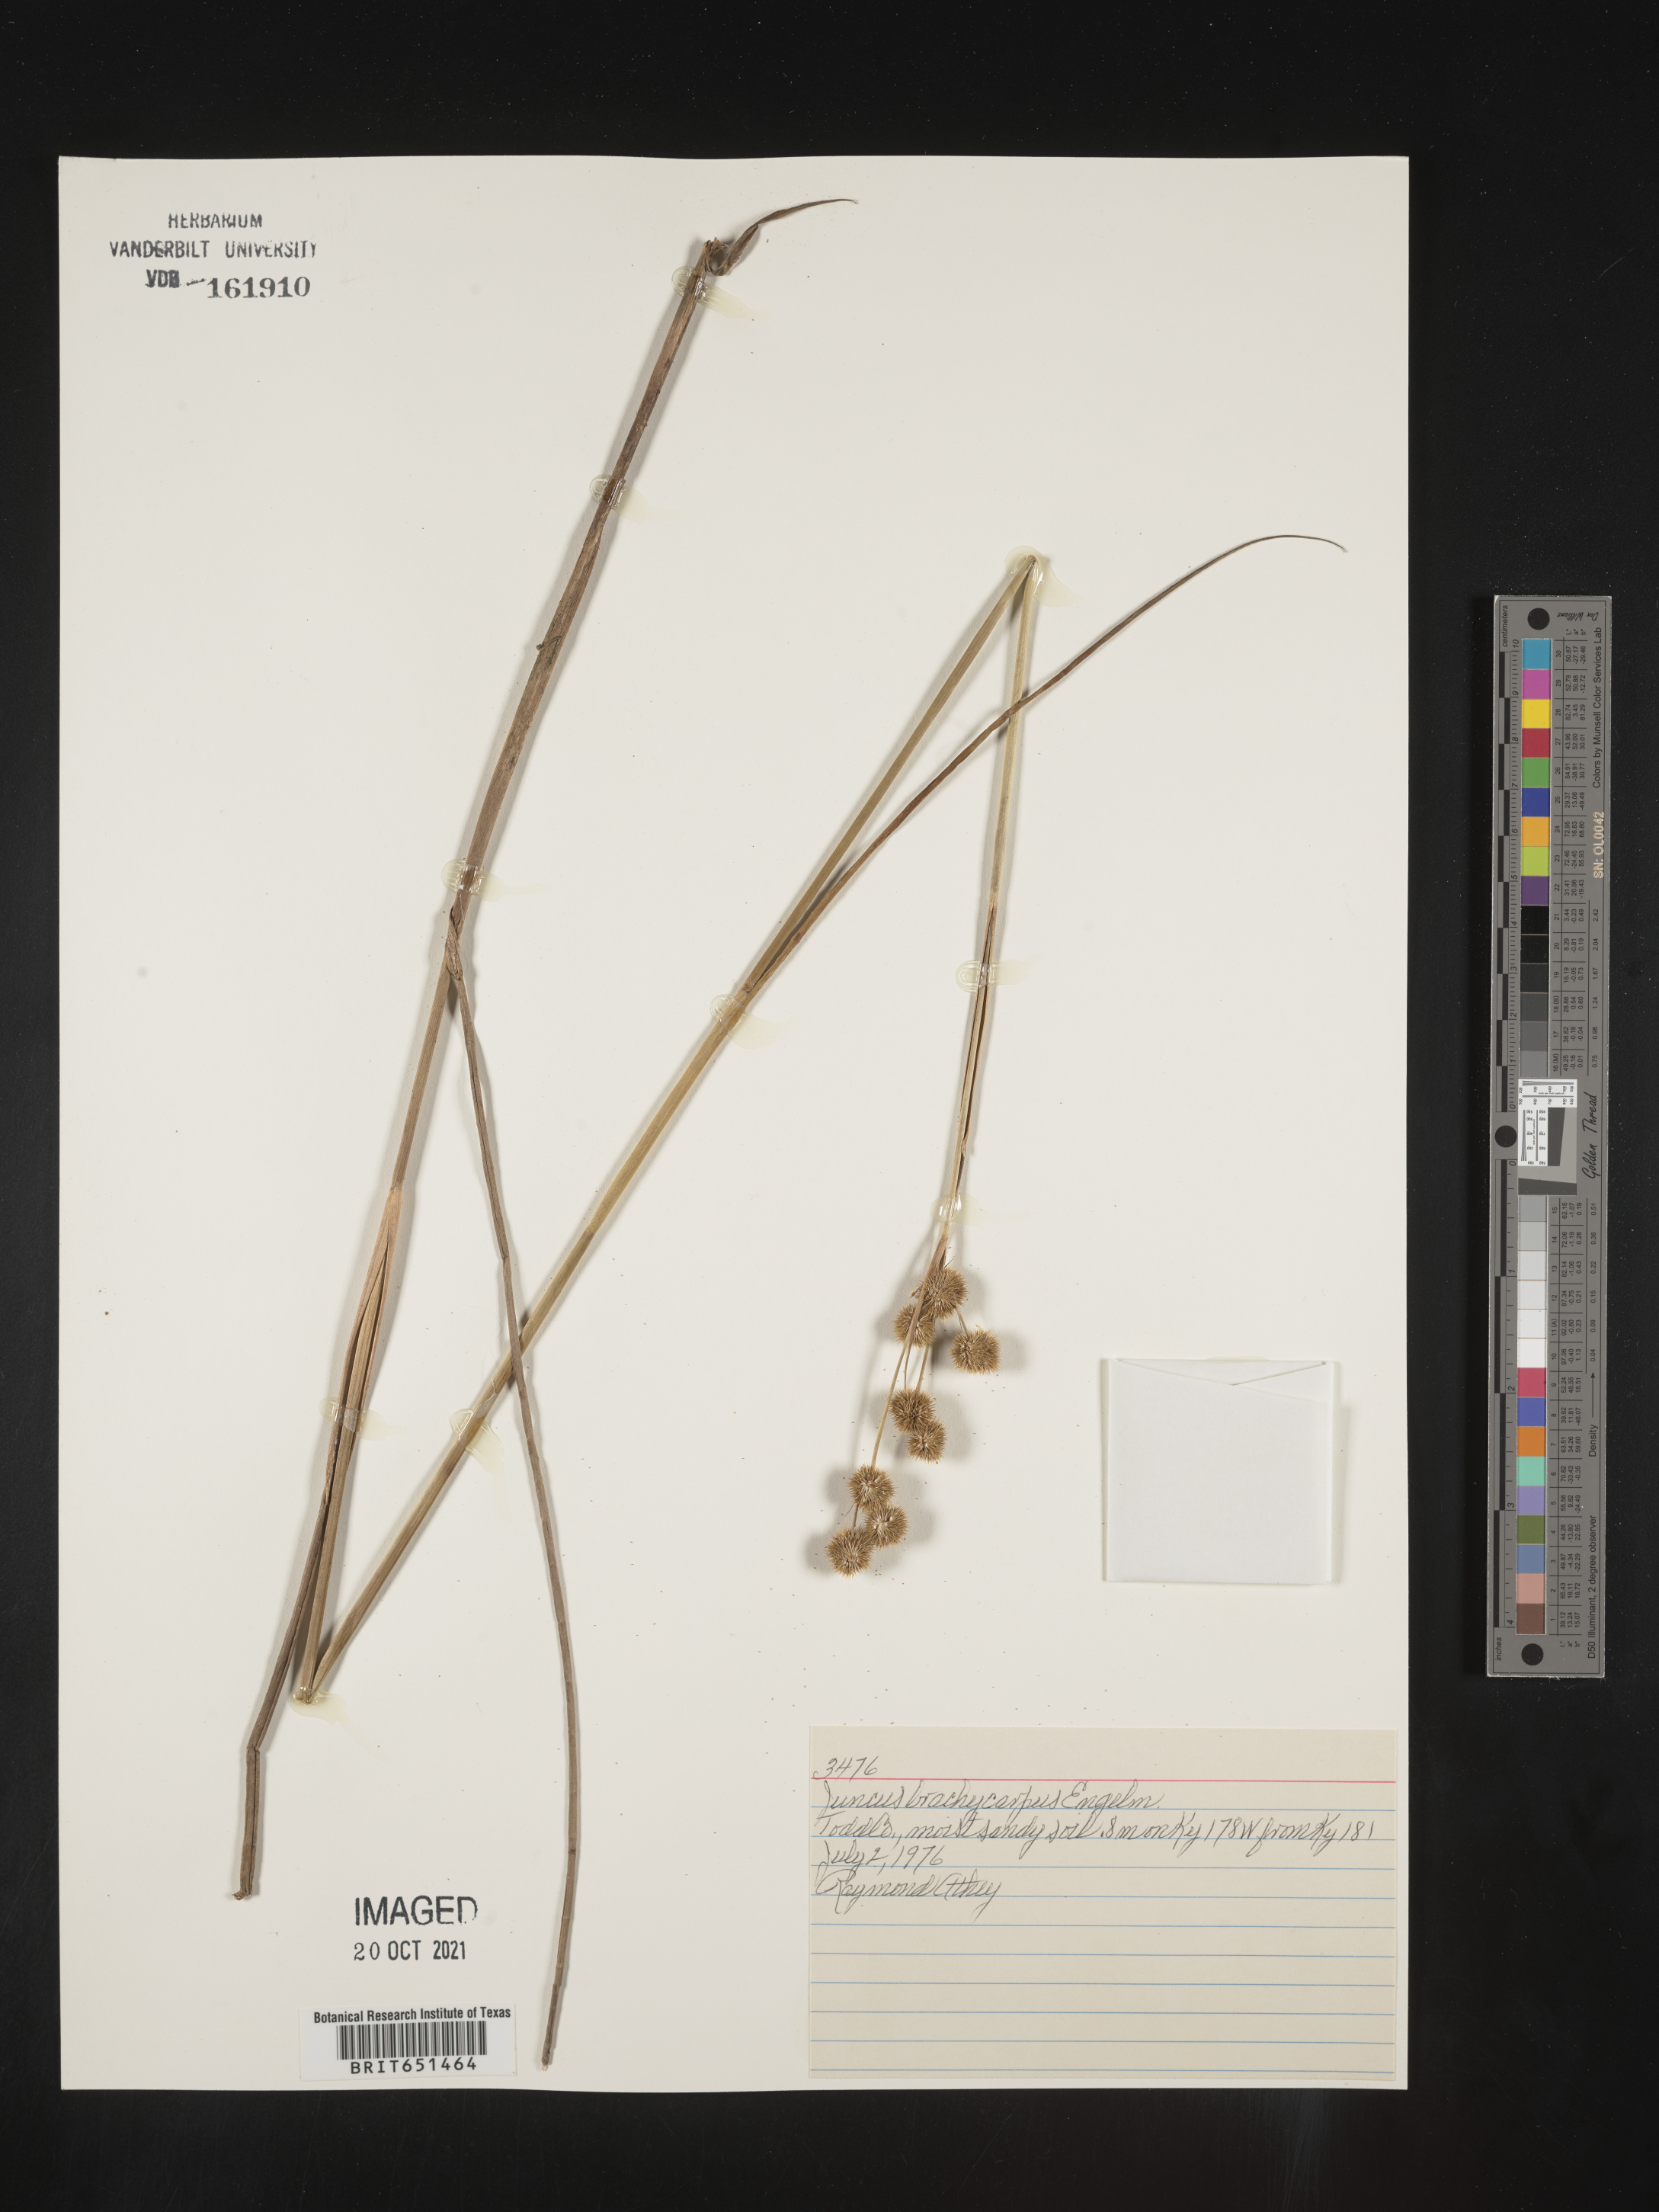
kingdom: Plantae
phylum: Tracheophyta
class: Liliopsida
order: Poales
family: Juncaceae
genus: Juncus
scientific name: Juncus brachycarpus
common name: Shore rush
